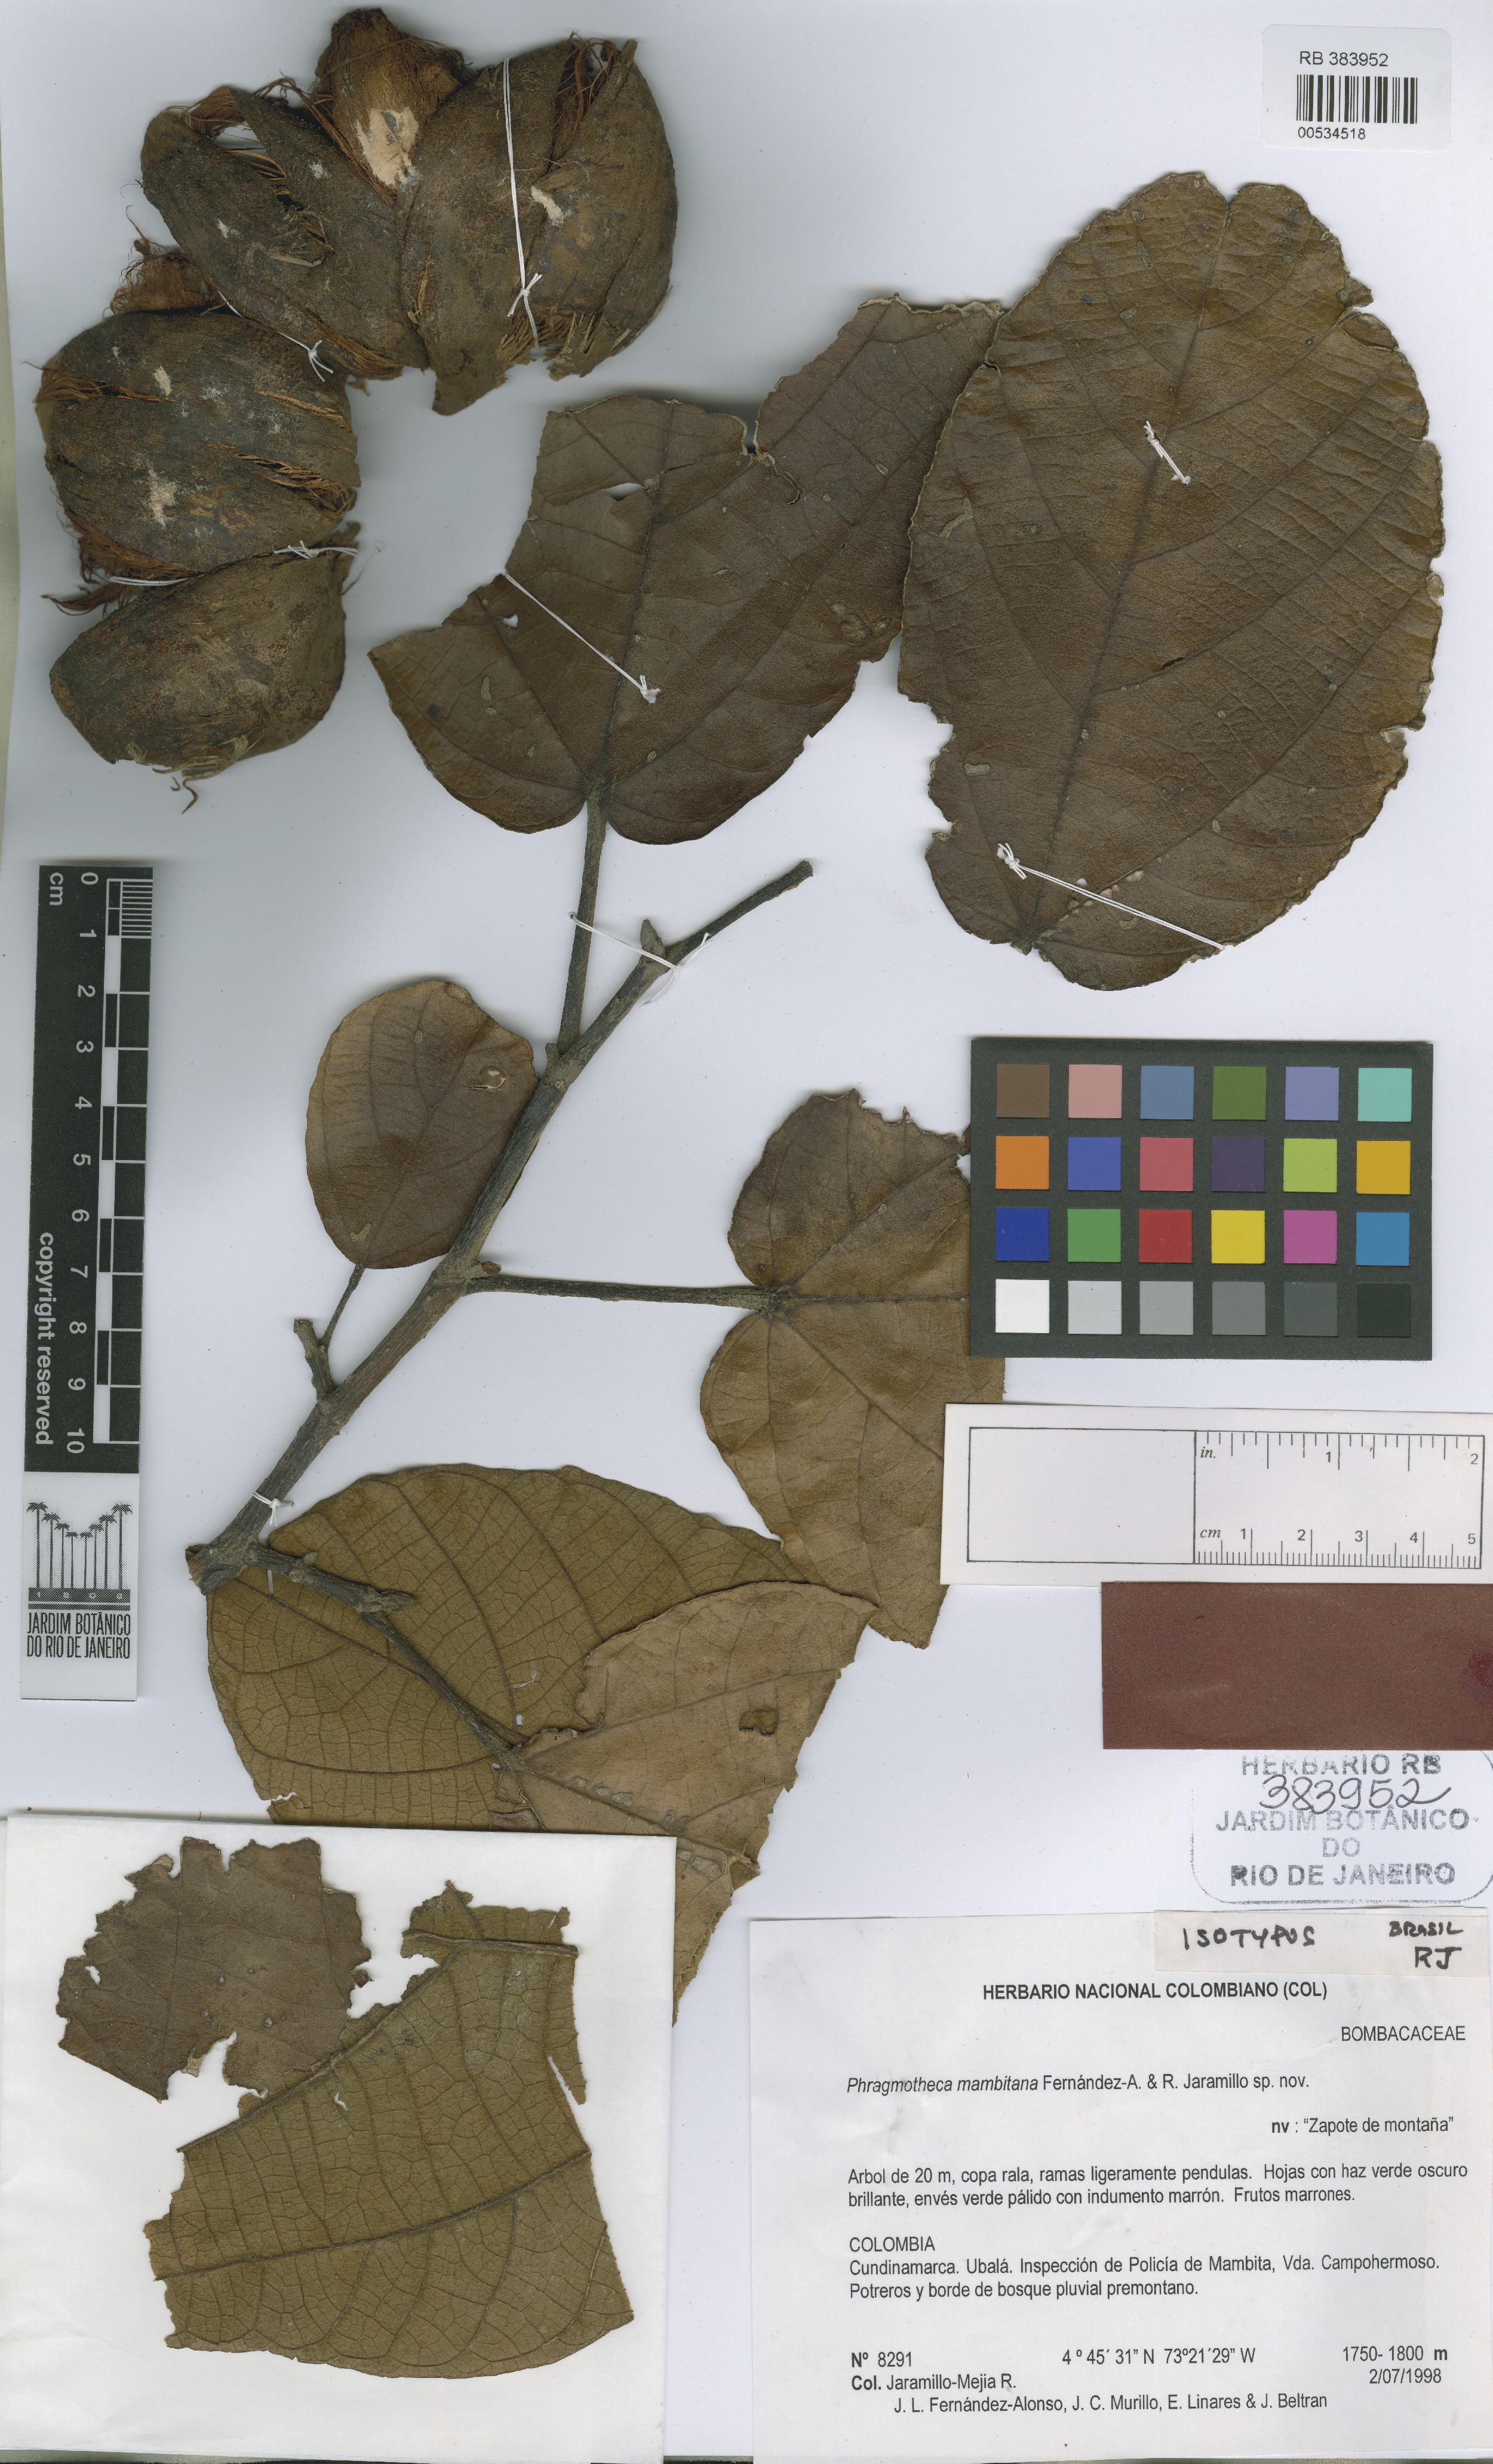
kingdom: Plantae
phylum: Tracheophyta
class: Magnoliopsida
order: Malvales
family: Malvaceae
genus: Phragmotheca
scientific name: Phragmotheca mambitana
